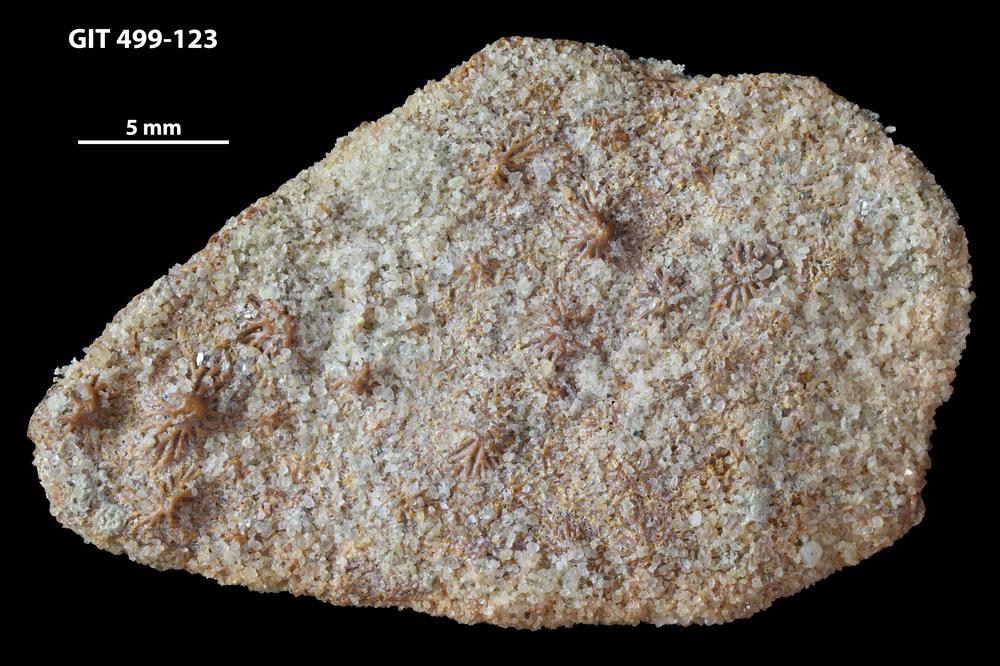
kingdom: Animalia
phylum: Chordata
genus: Ganosteus
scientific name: Ganosteus
